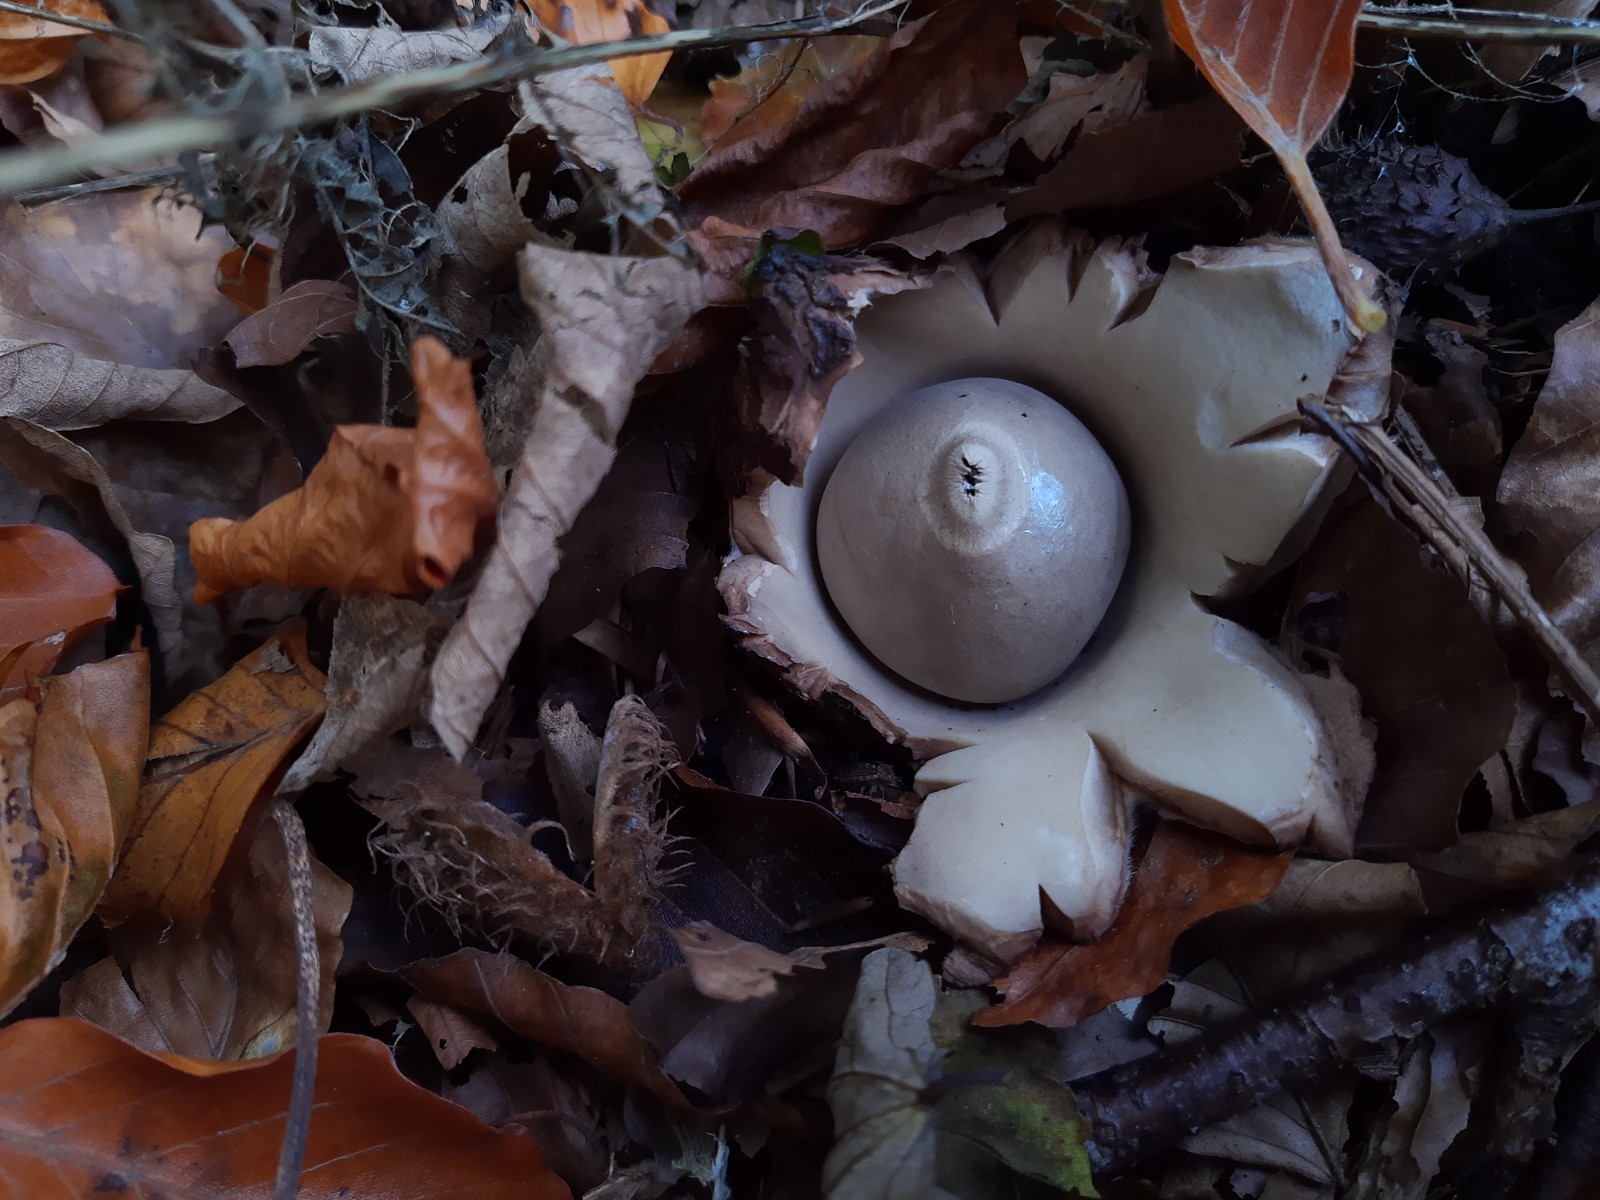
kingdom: Fungi
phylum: Basidiomycota
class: Agaricomycetes
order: Geastrales
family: Geastraceae
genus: Geastrum
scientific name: Geastrum michelianum
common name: kødet stjernebold
